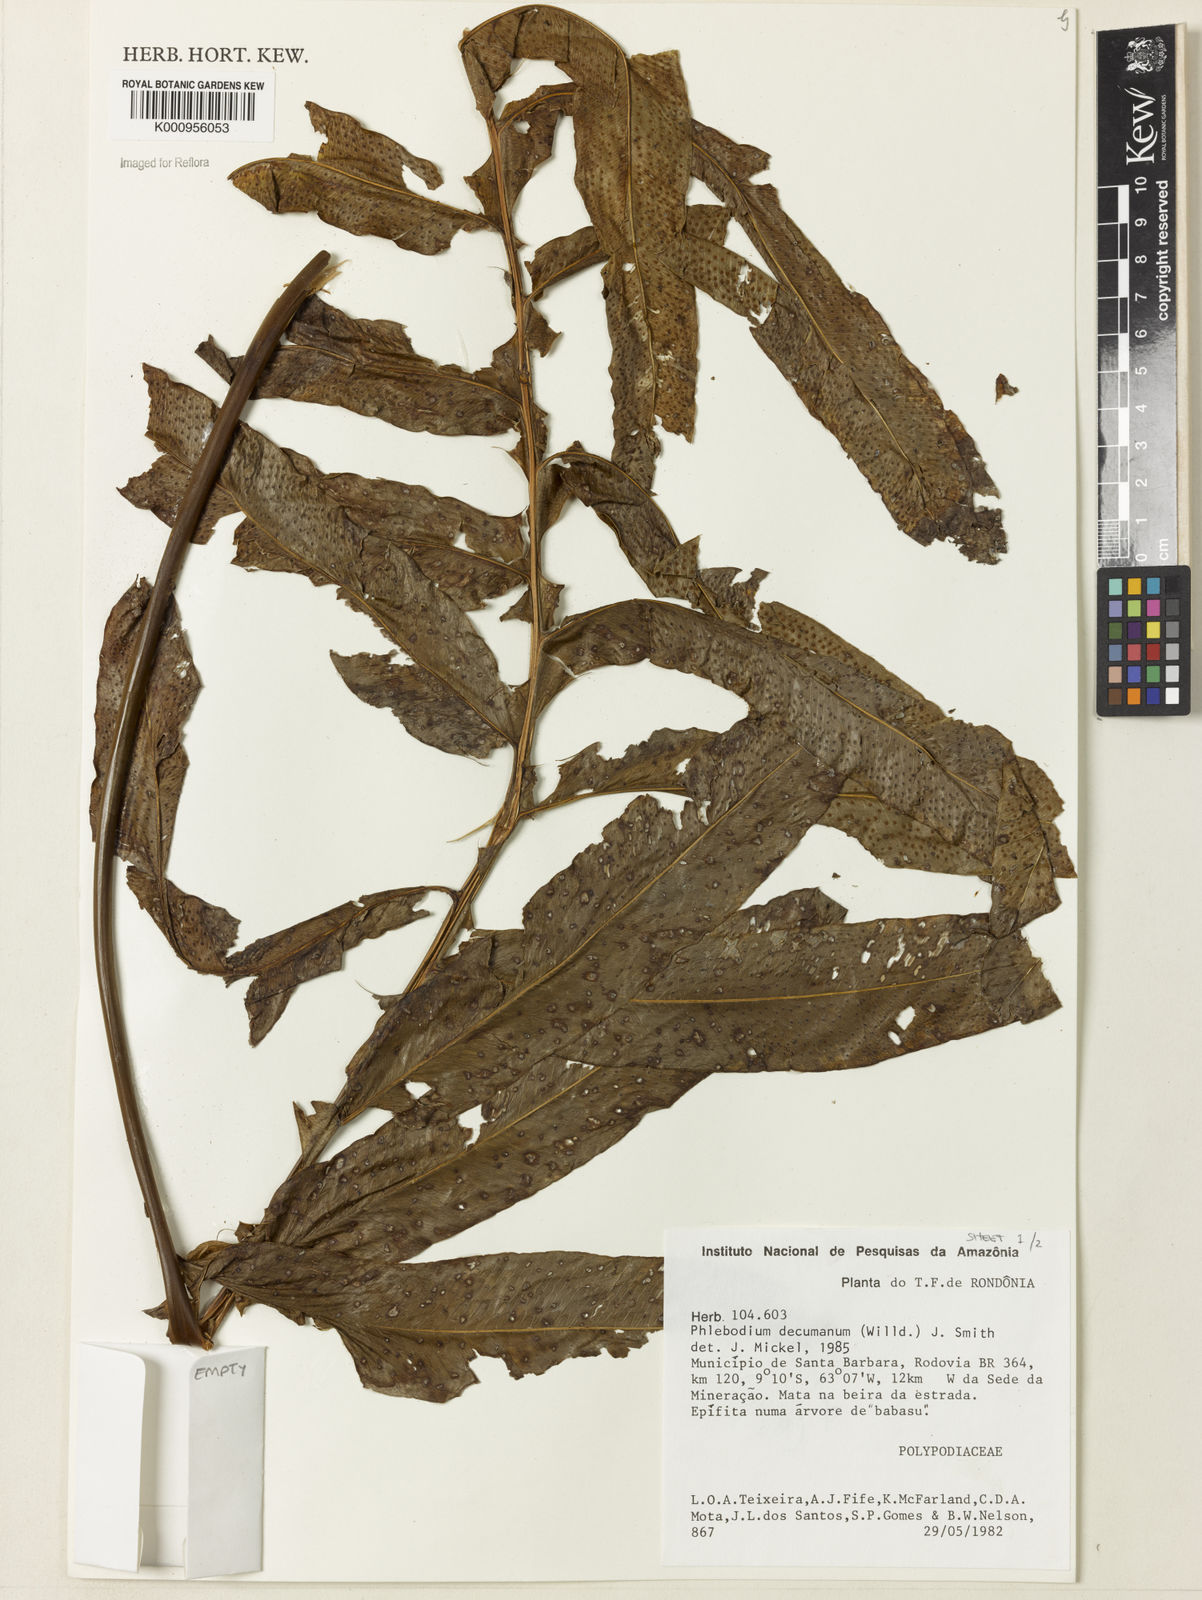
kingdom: Plantae
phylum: Tracheophyta
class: Polypodiopsida
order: Polypodiales
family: Polypodiaceae
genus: Phlebodium
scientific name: Phlebodium decumanum
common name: Golden polypod
